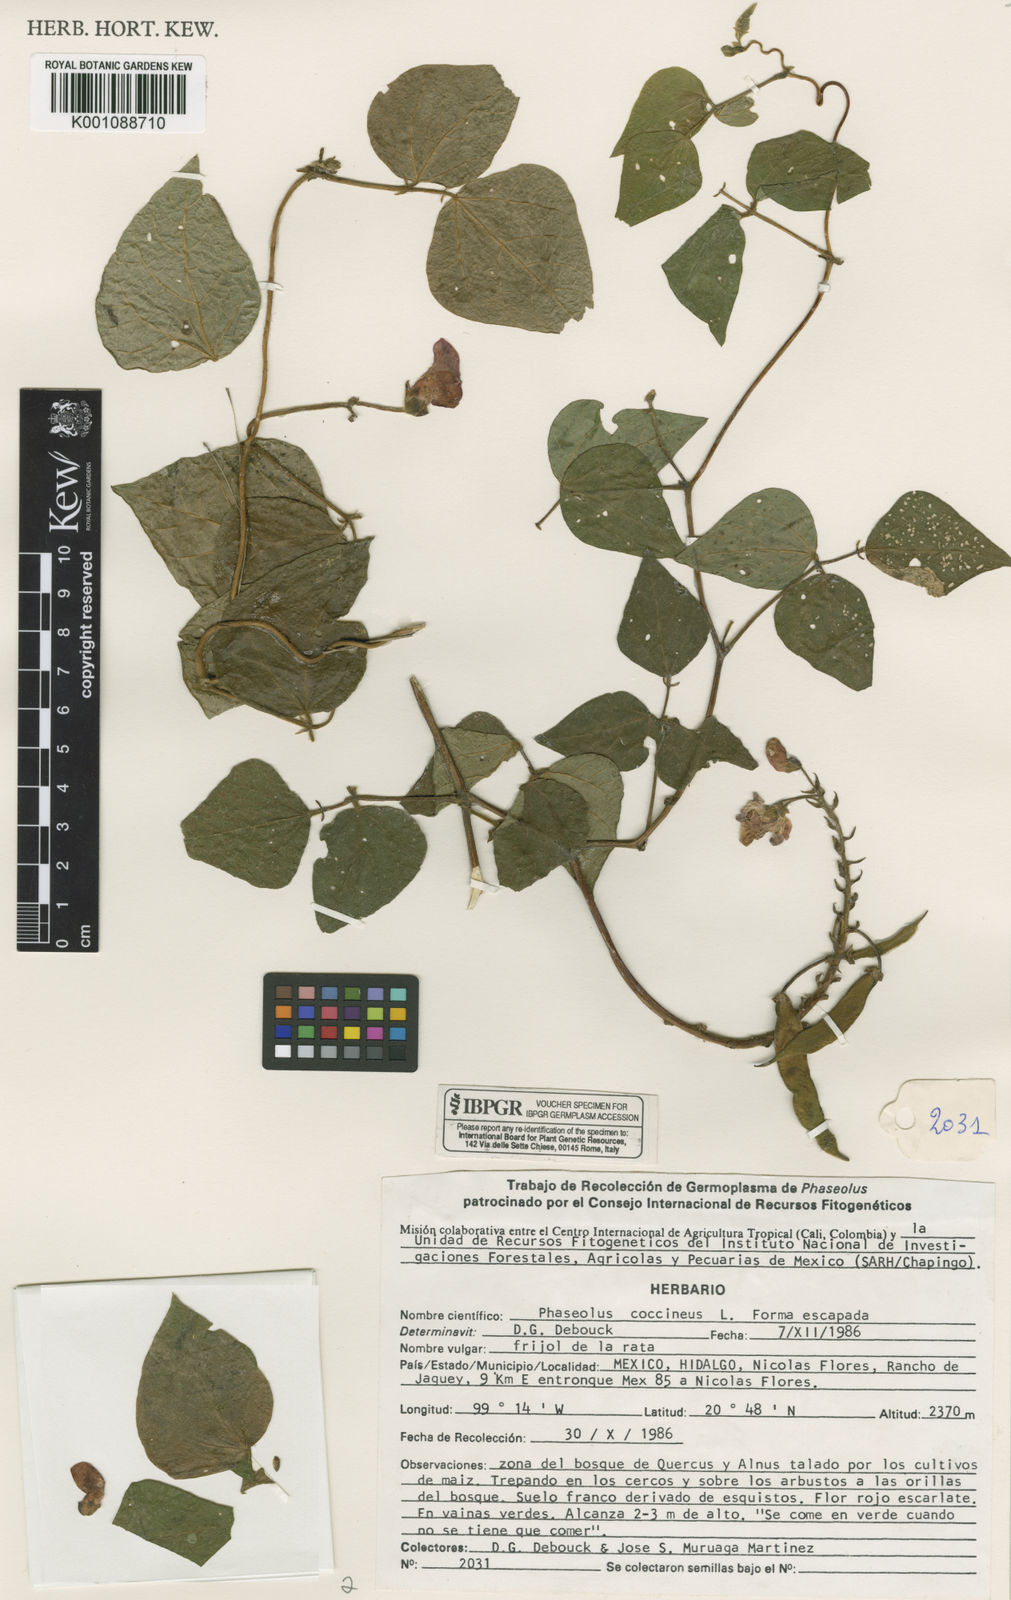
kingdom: Plantae
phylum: Tracheophyta
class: Magnoliopsida
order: Fabales
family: Fabaceae
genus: Phaseolus
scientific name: Phaseolus coccineus
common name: Runner bean
